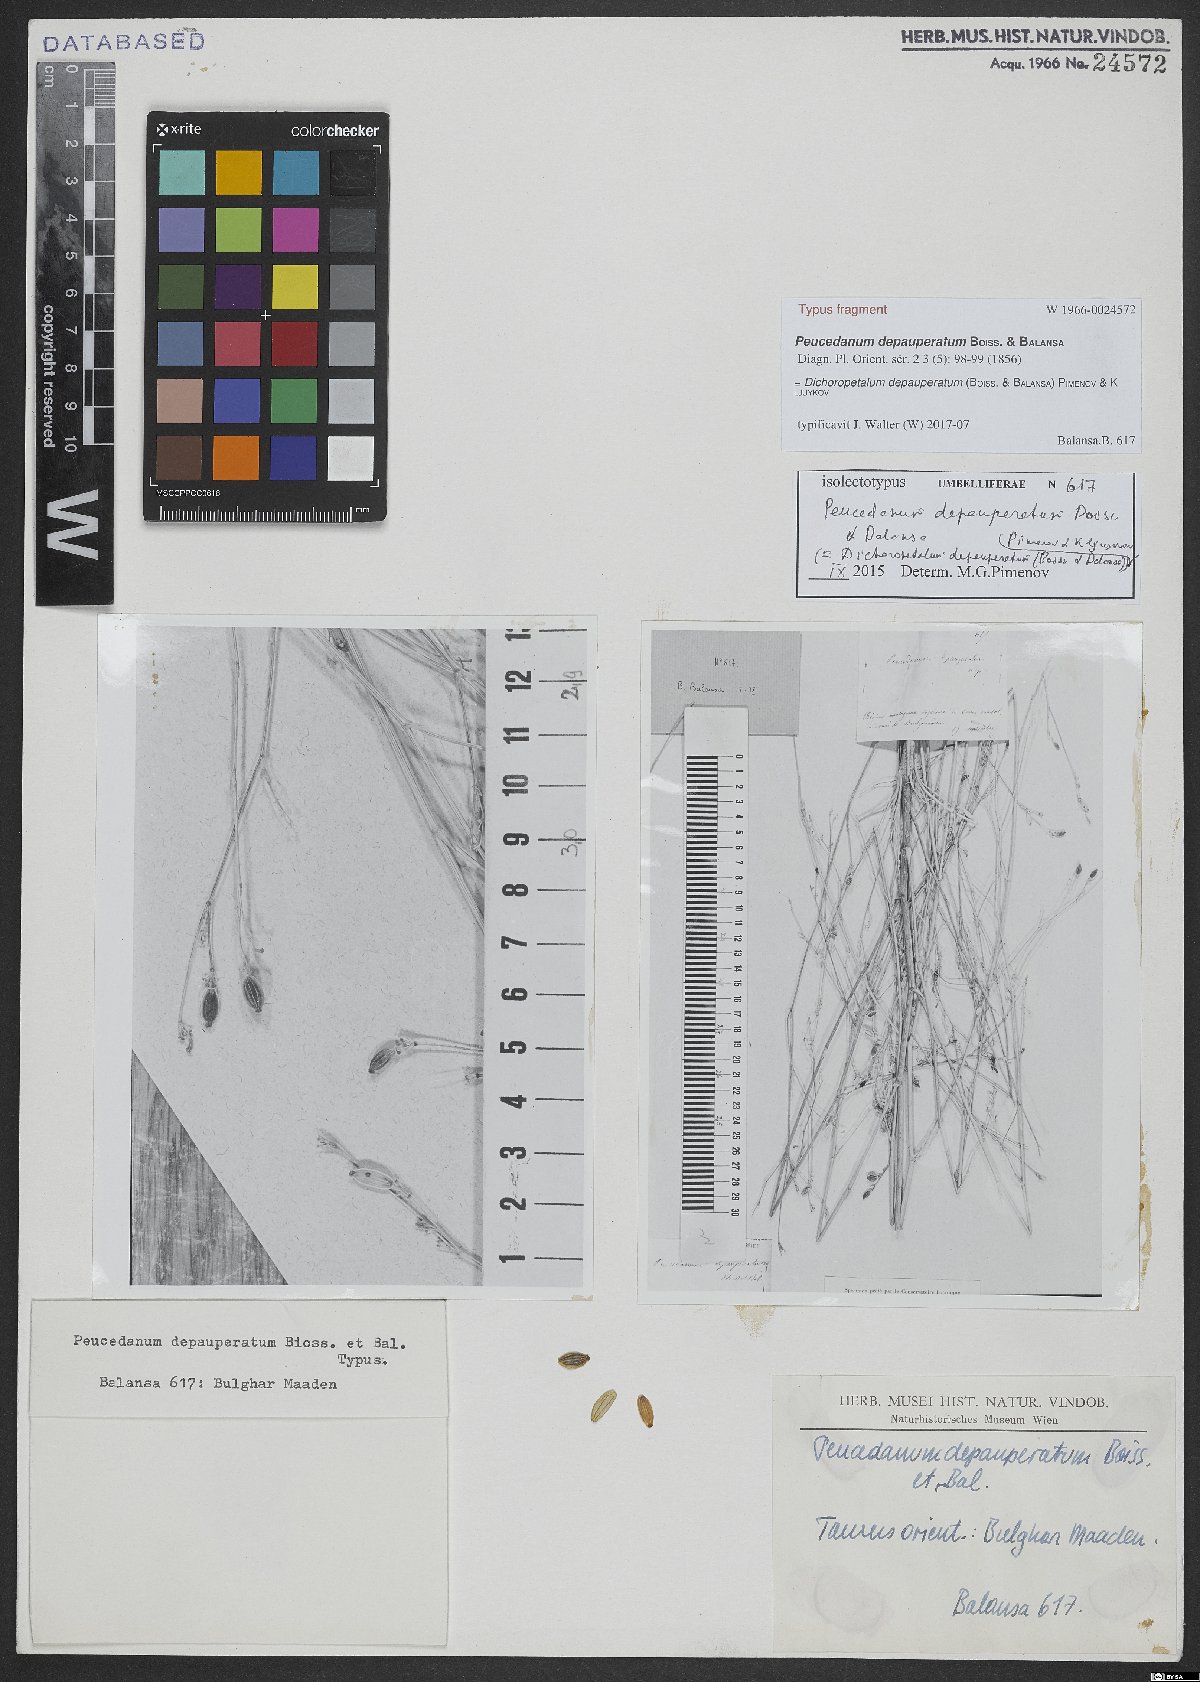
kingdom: Plantae
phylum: Tracheophyta
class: Magnoliopsida
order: Apiales
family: Apiaceae
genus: Dichoropetalum
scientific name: Dichoropetalum depauperatum
